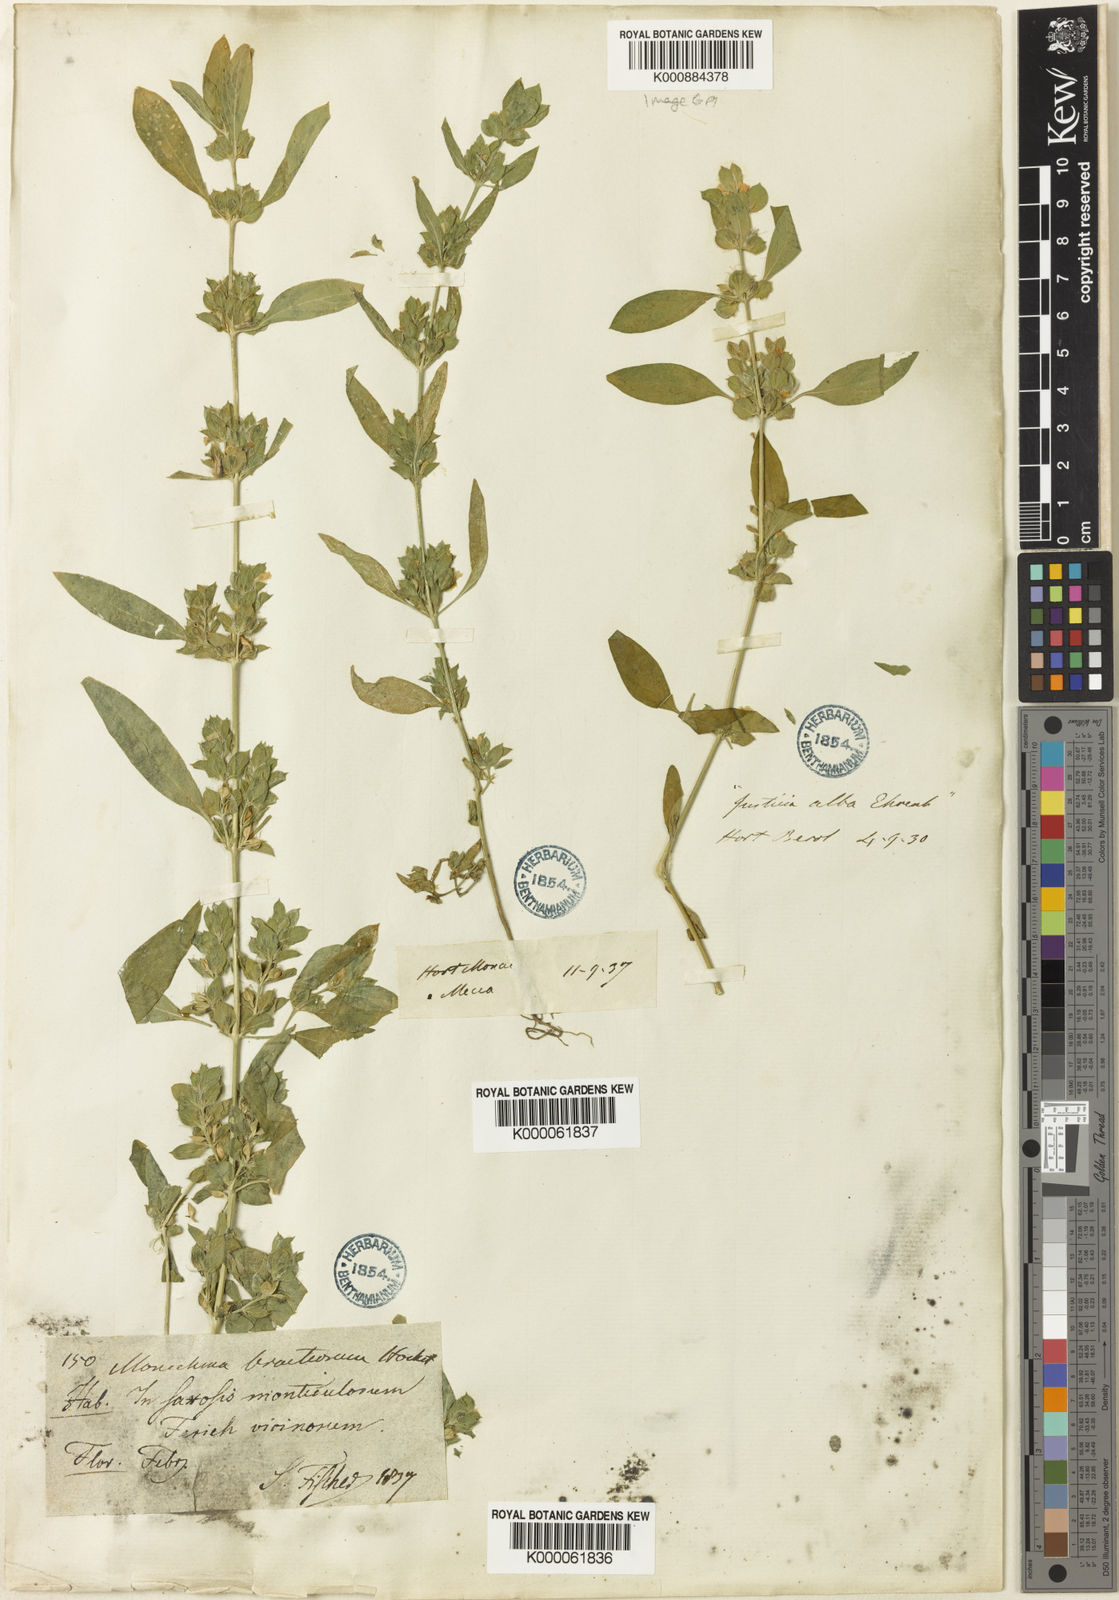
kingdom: Plantae
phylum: Tracheophyta
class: Magnoliopsida
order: Lamiales
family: Acanthaceae
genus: Monechma
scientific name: Monechma debile
